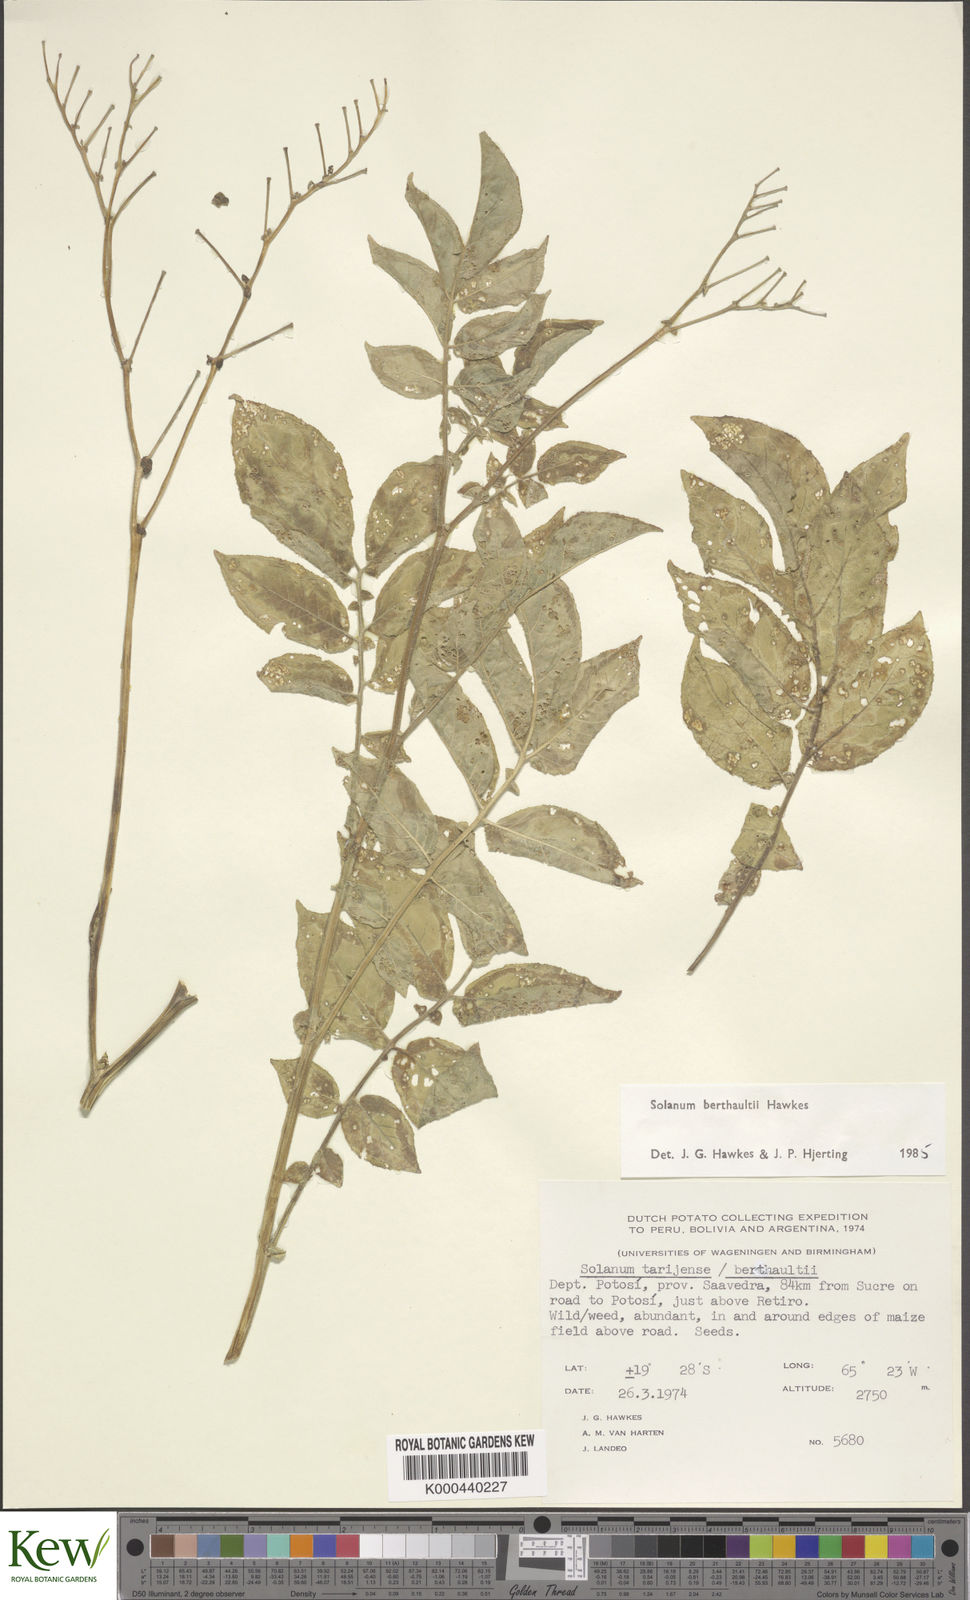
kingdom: Plantae
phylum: Tracheophyta
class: Magnoliopsida
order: Solanales
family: Solanaceae
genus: Solanum
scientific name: Solanum berthaultii
